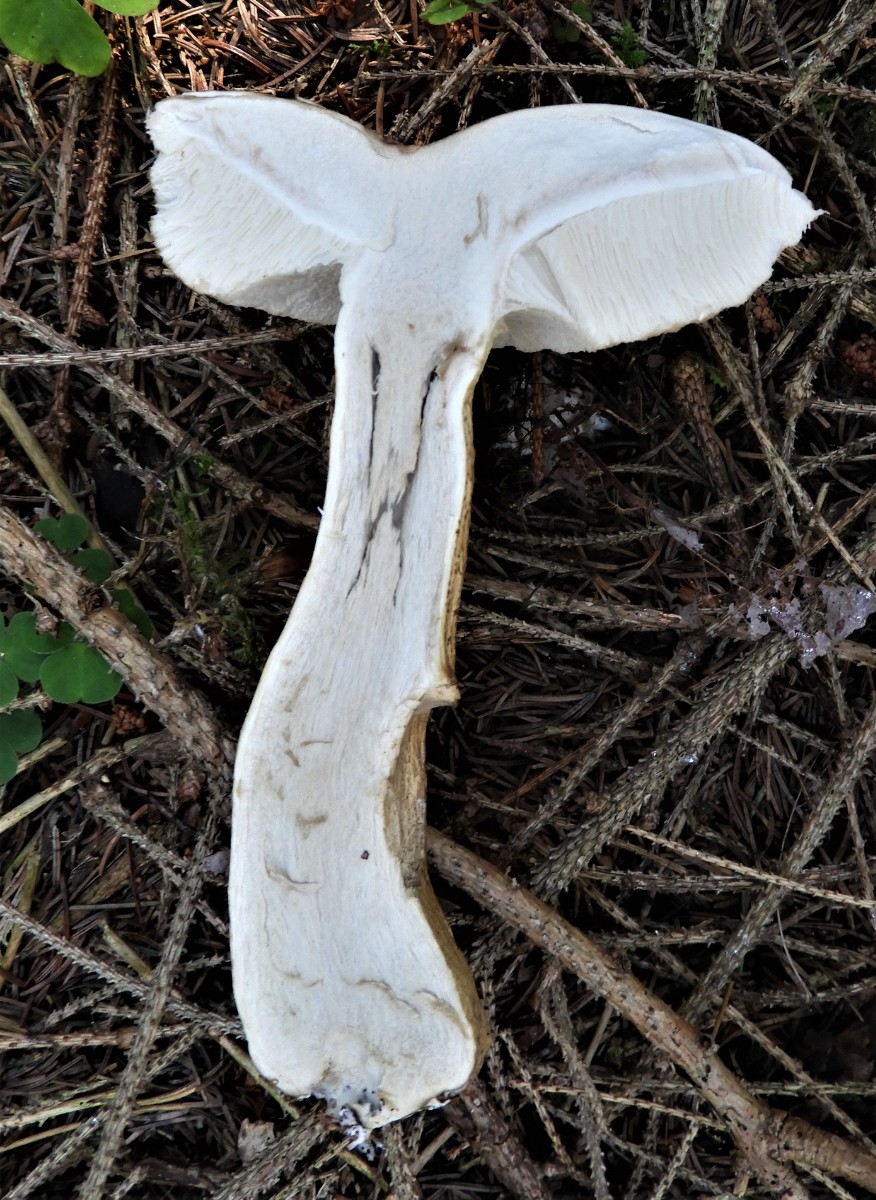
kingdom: Fungi
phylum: Basidiomycota
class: Agaricomycetes
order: Boletales
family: Boletaceae
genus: Tylopilus
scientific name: Tylopilus felleus
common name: galderørhat
